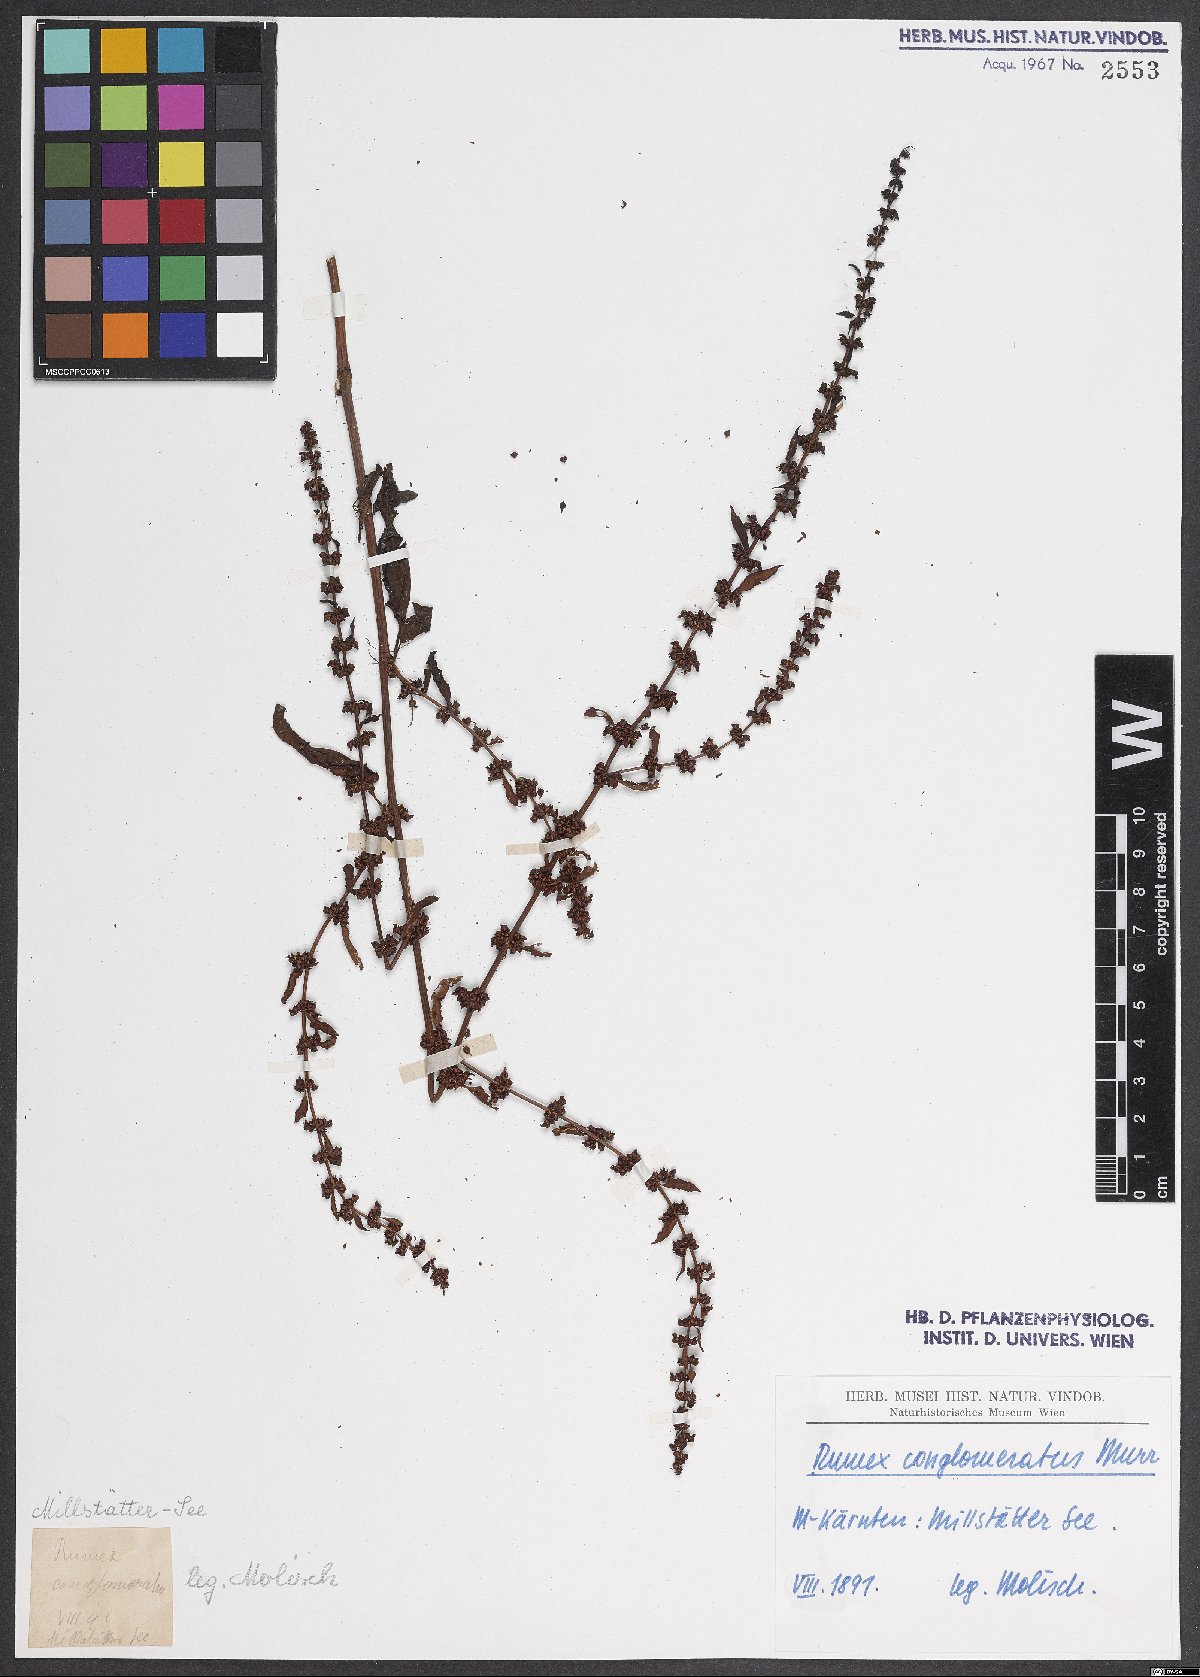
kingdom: Plantae
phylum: Tracheophyta
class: Magnoliopsida
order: Caryophyllales
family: Polygonaceae
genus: Rumex
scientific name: Rumex conglomeratus
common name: Clustered dock
